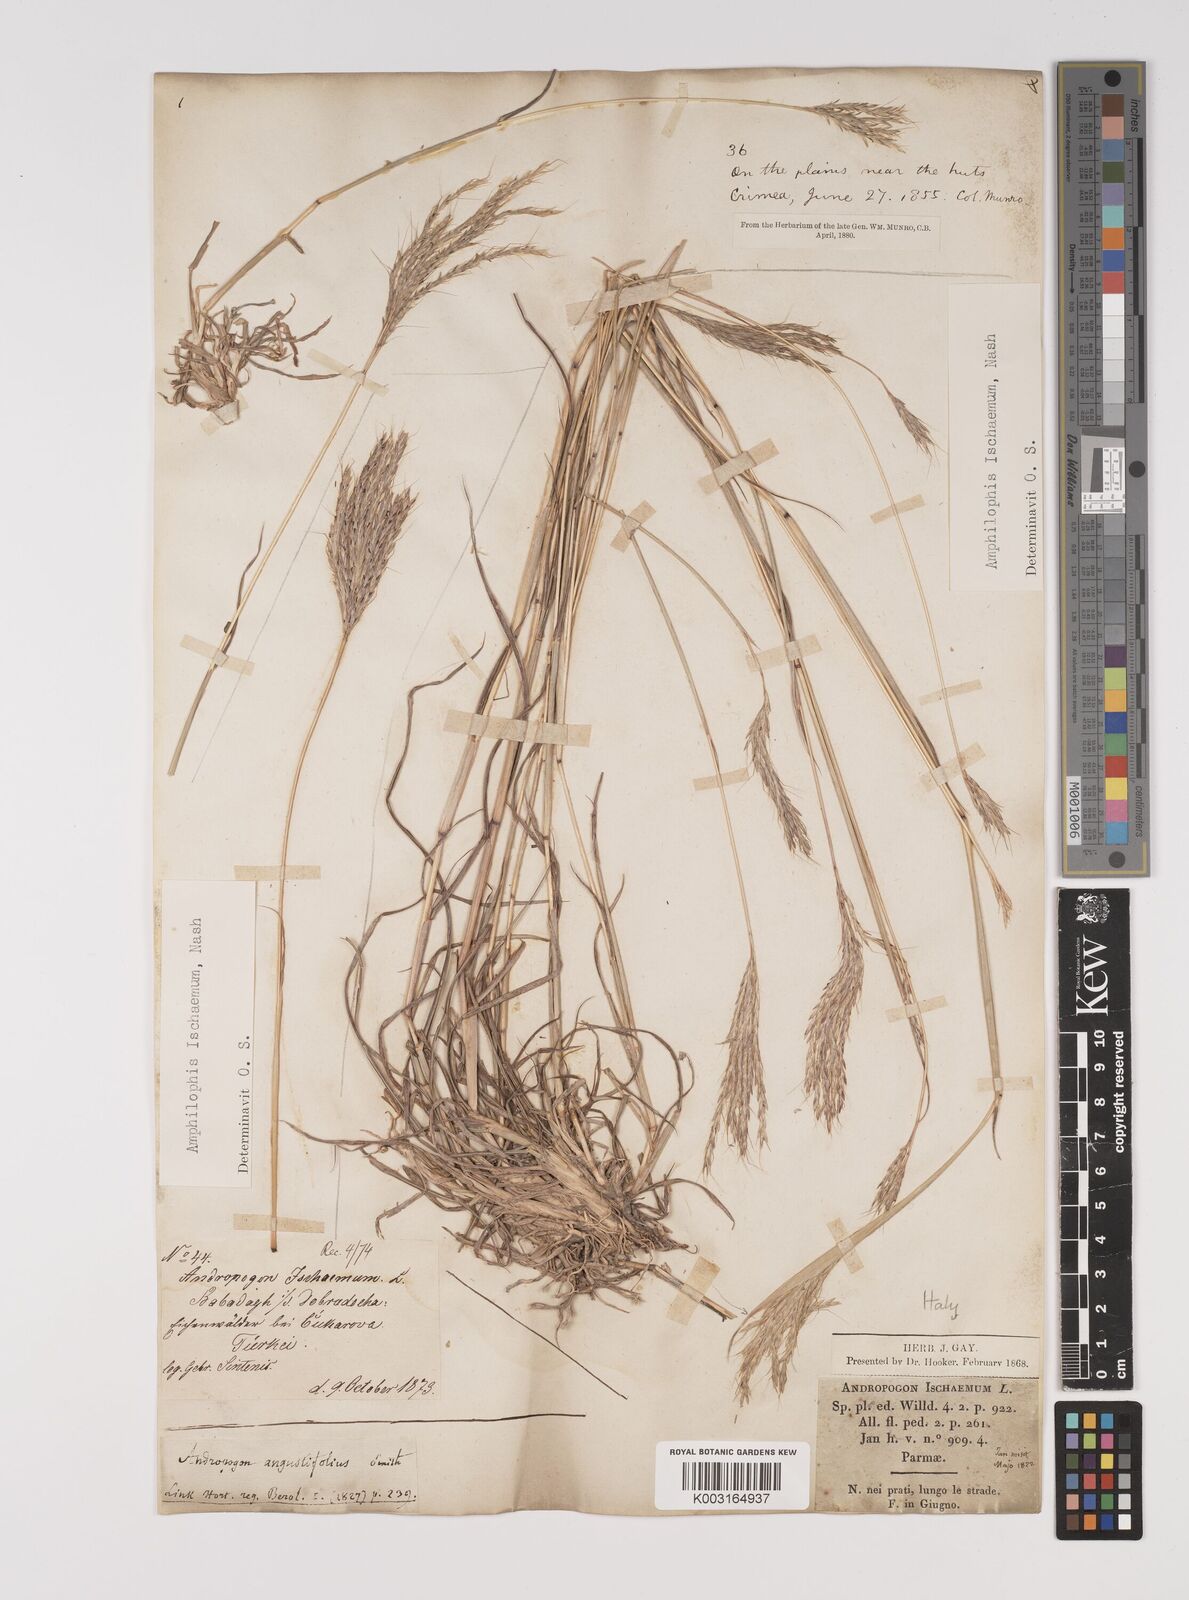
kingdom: Plantae
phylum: Tracheophyta
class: Liliopsida
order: Poales
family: Poaceae
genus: Bothriochloa
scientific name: Bothriochloa ischaemum
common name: Yellow bluestem
